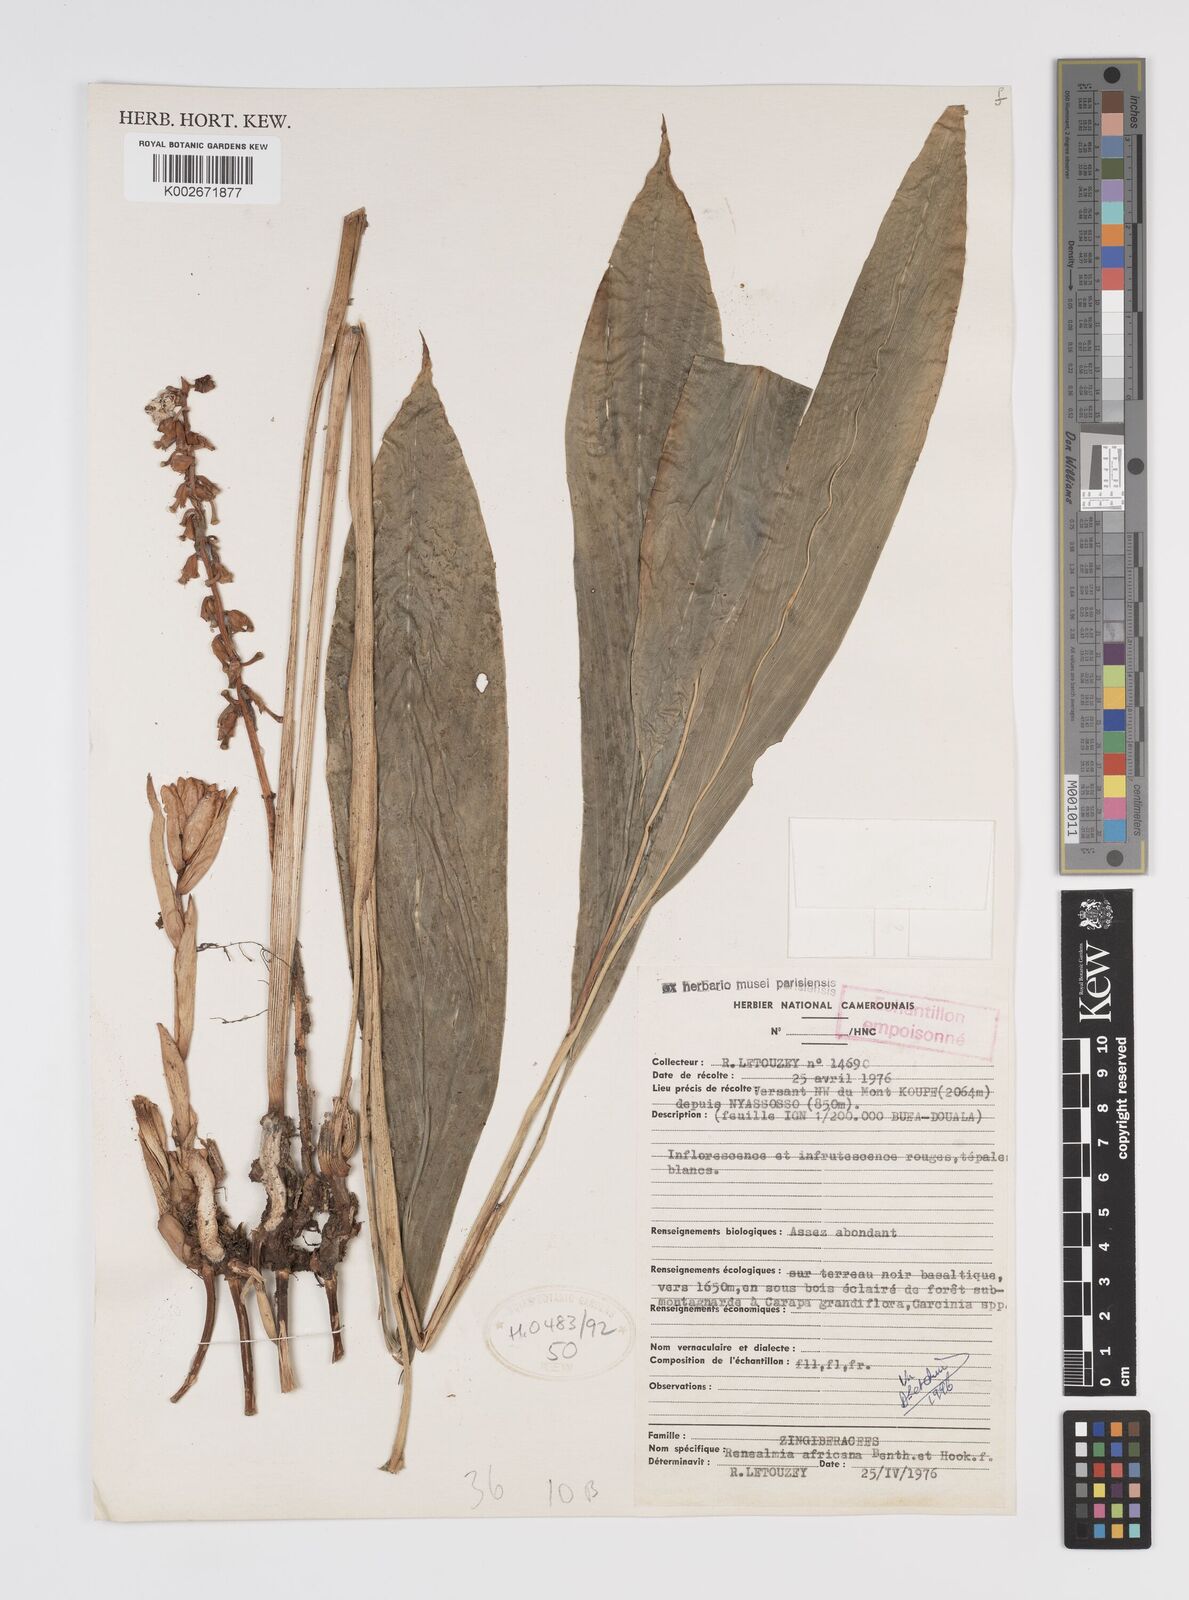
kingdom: Plantae
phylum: Tracheophyta
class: Liliopsida
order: Zingiberales
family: Zingiberaceae
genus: Renealmia
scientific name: Renealmia africana
